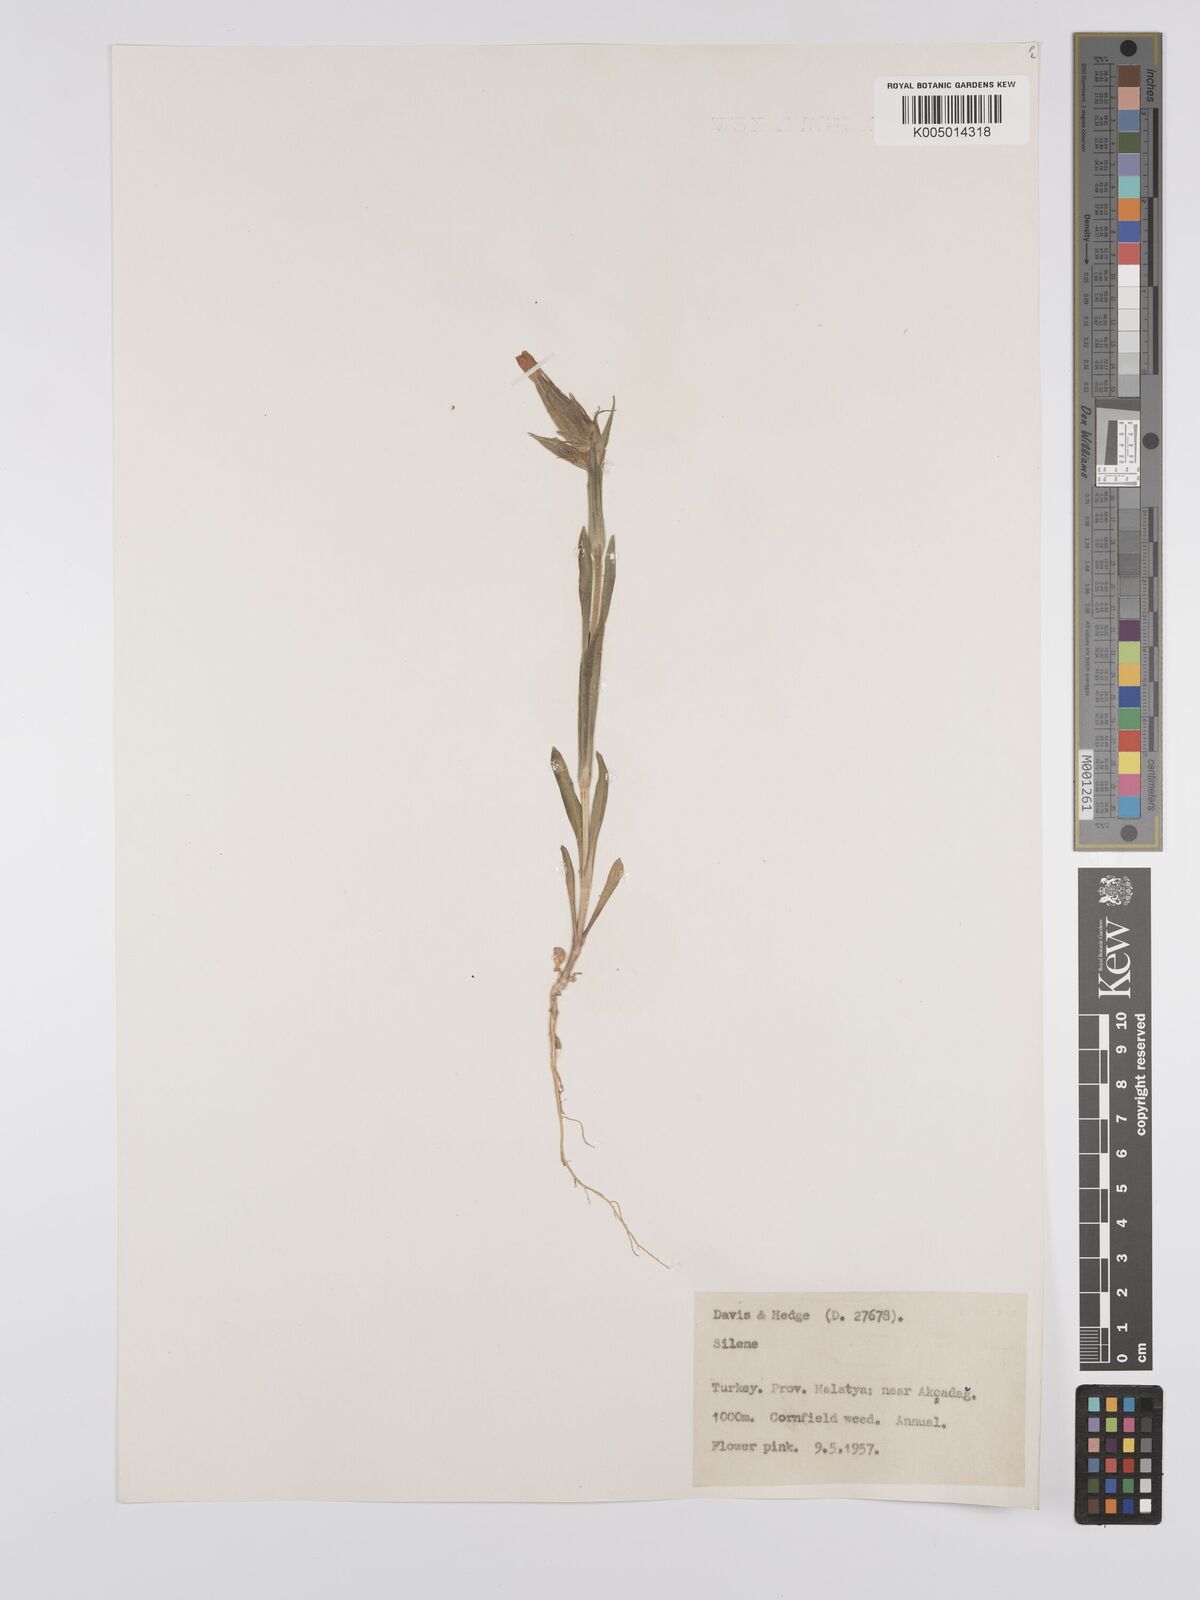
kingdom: Plantae
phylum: Tracheophyta
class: Magnoliopsida
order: Caryophyllales
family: Caryophyllaceae
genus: Silene
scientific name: Silene
